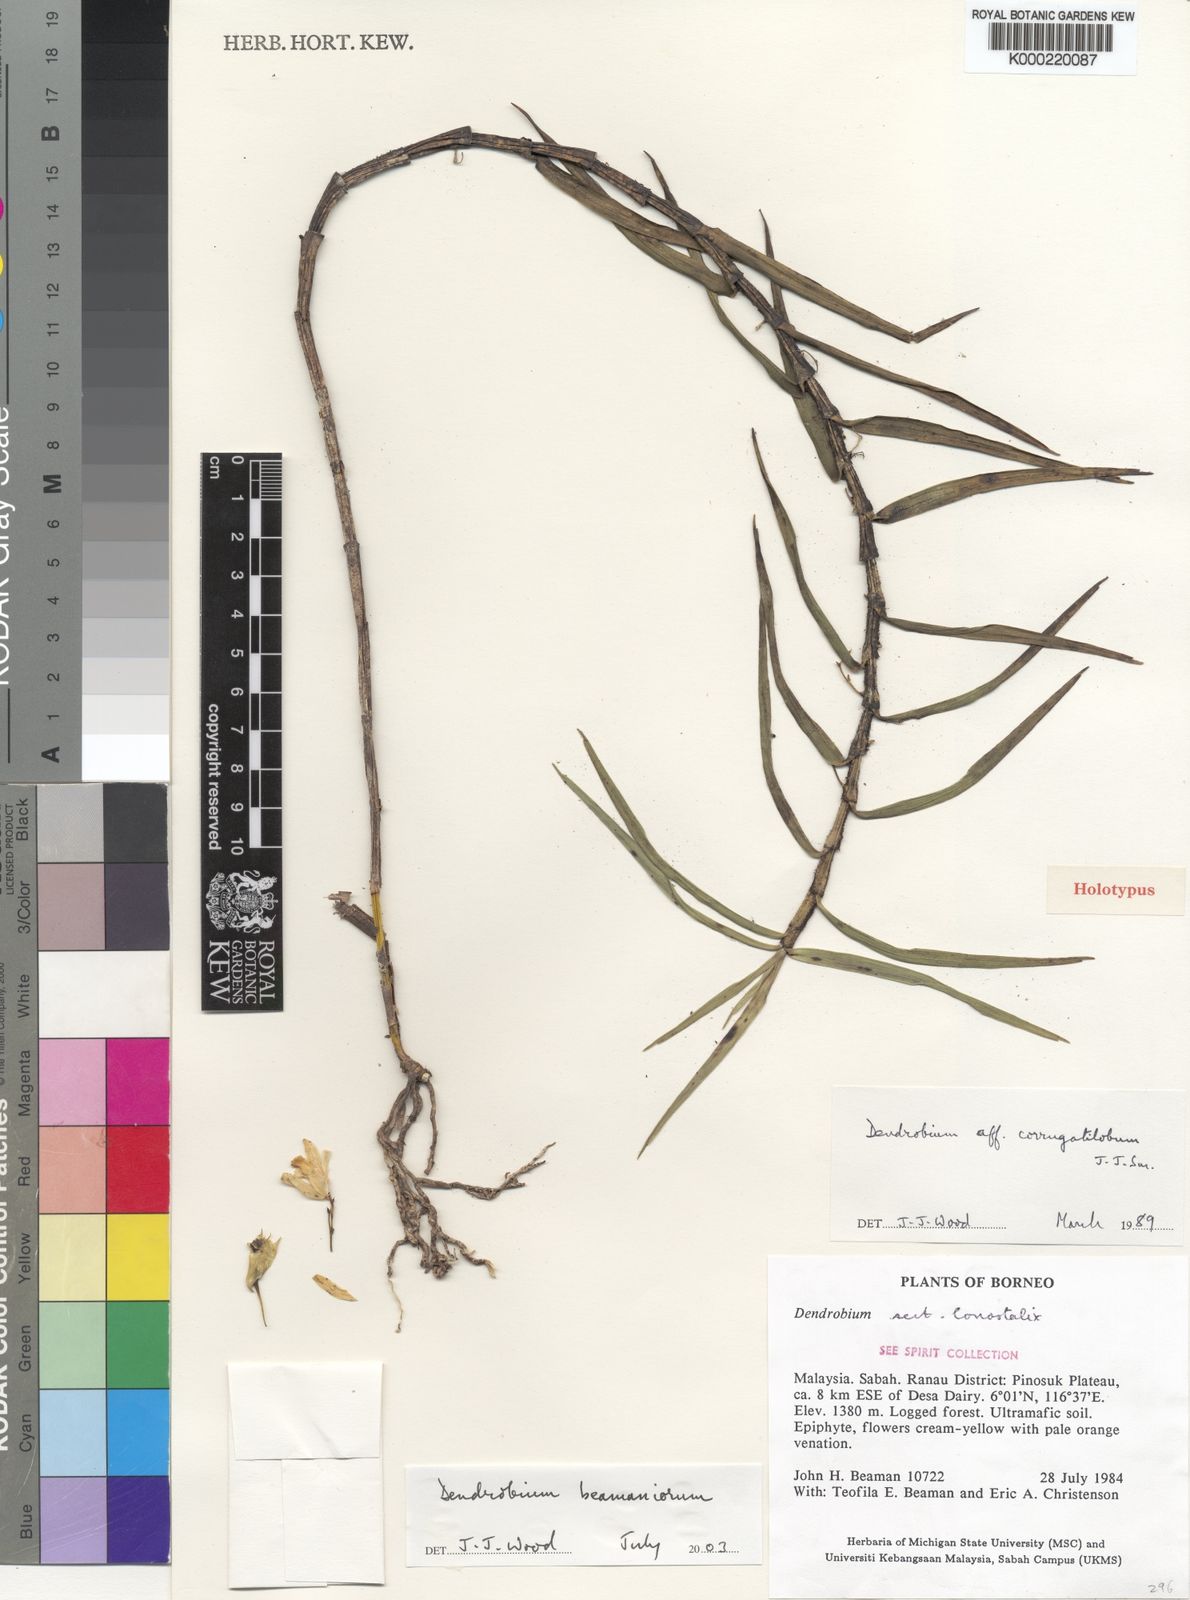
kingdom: Plantae
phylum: Tracheophyta
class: Liliopsida
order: Asparagales
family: Orchidaceae
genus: Dendrobium
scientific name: Dendrobium
